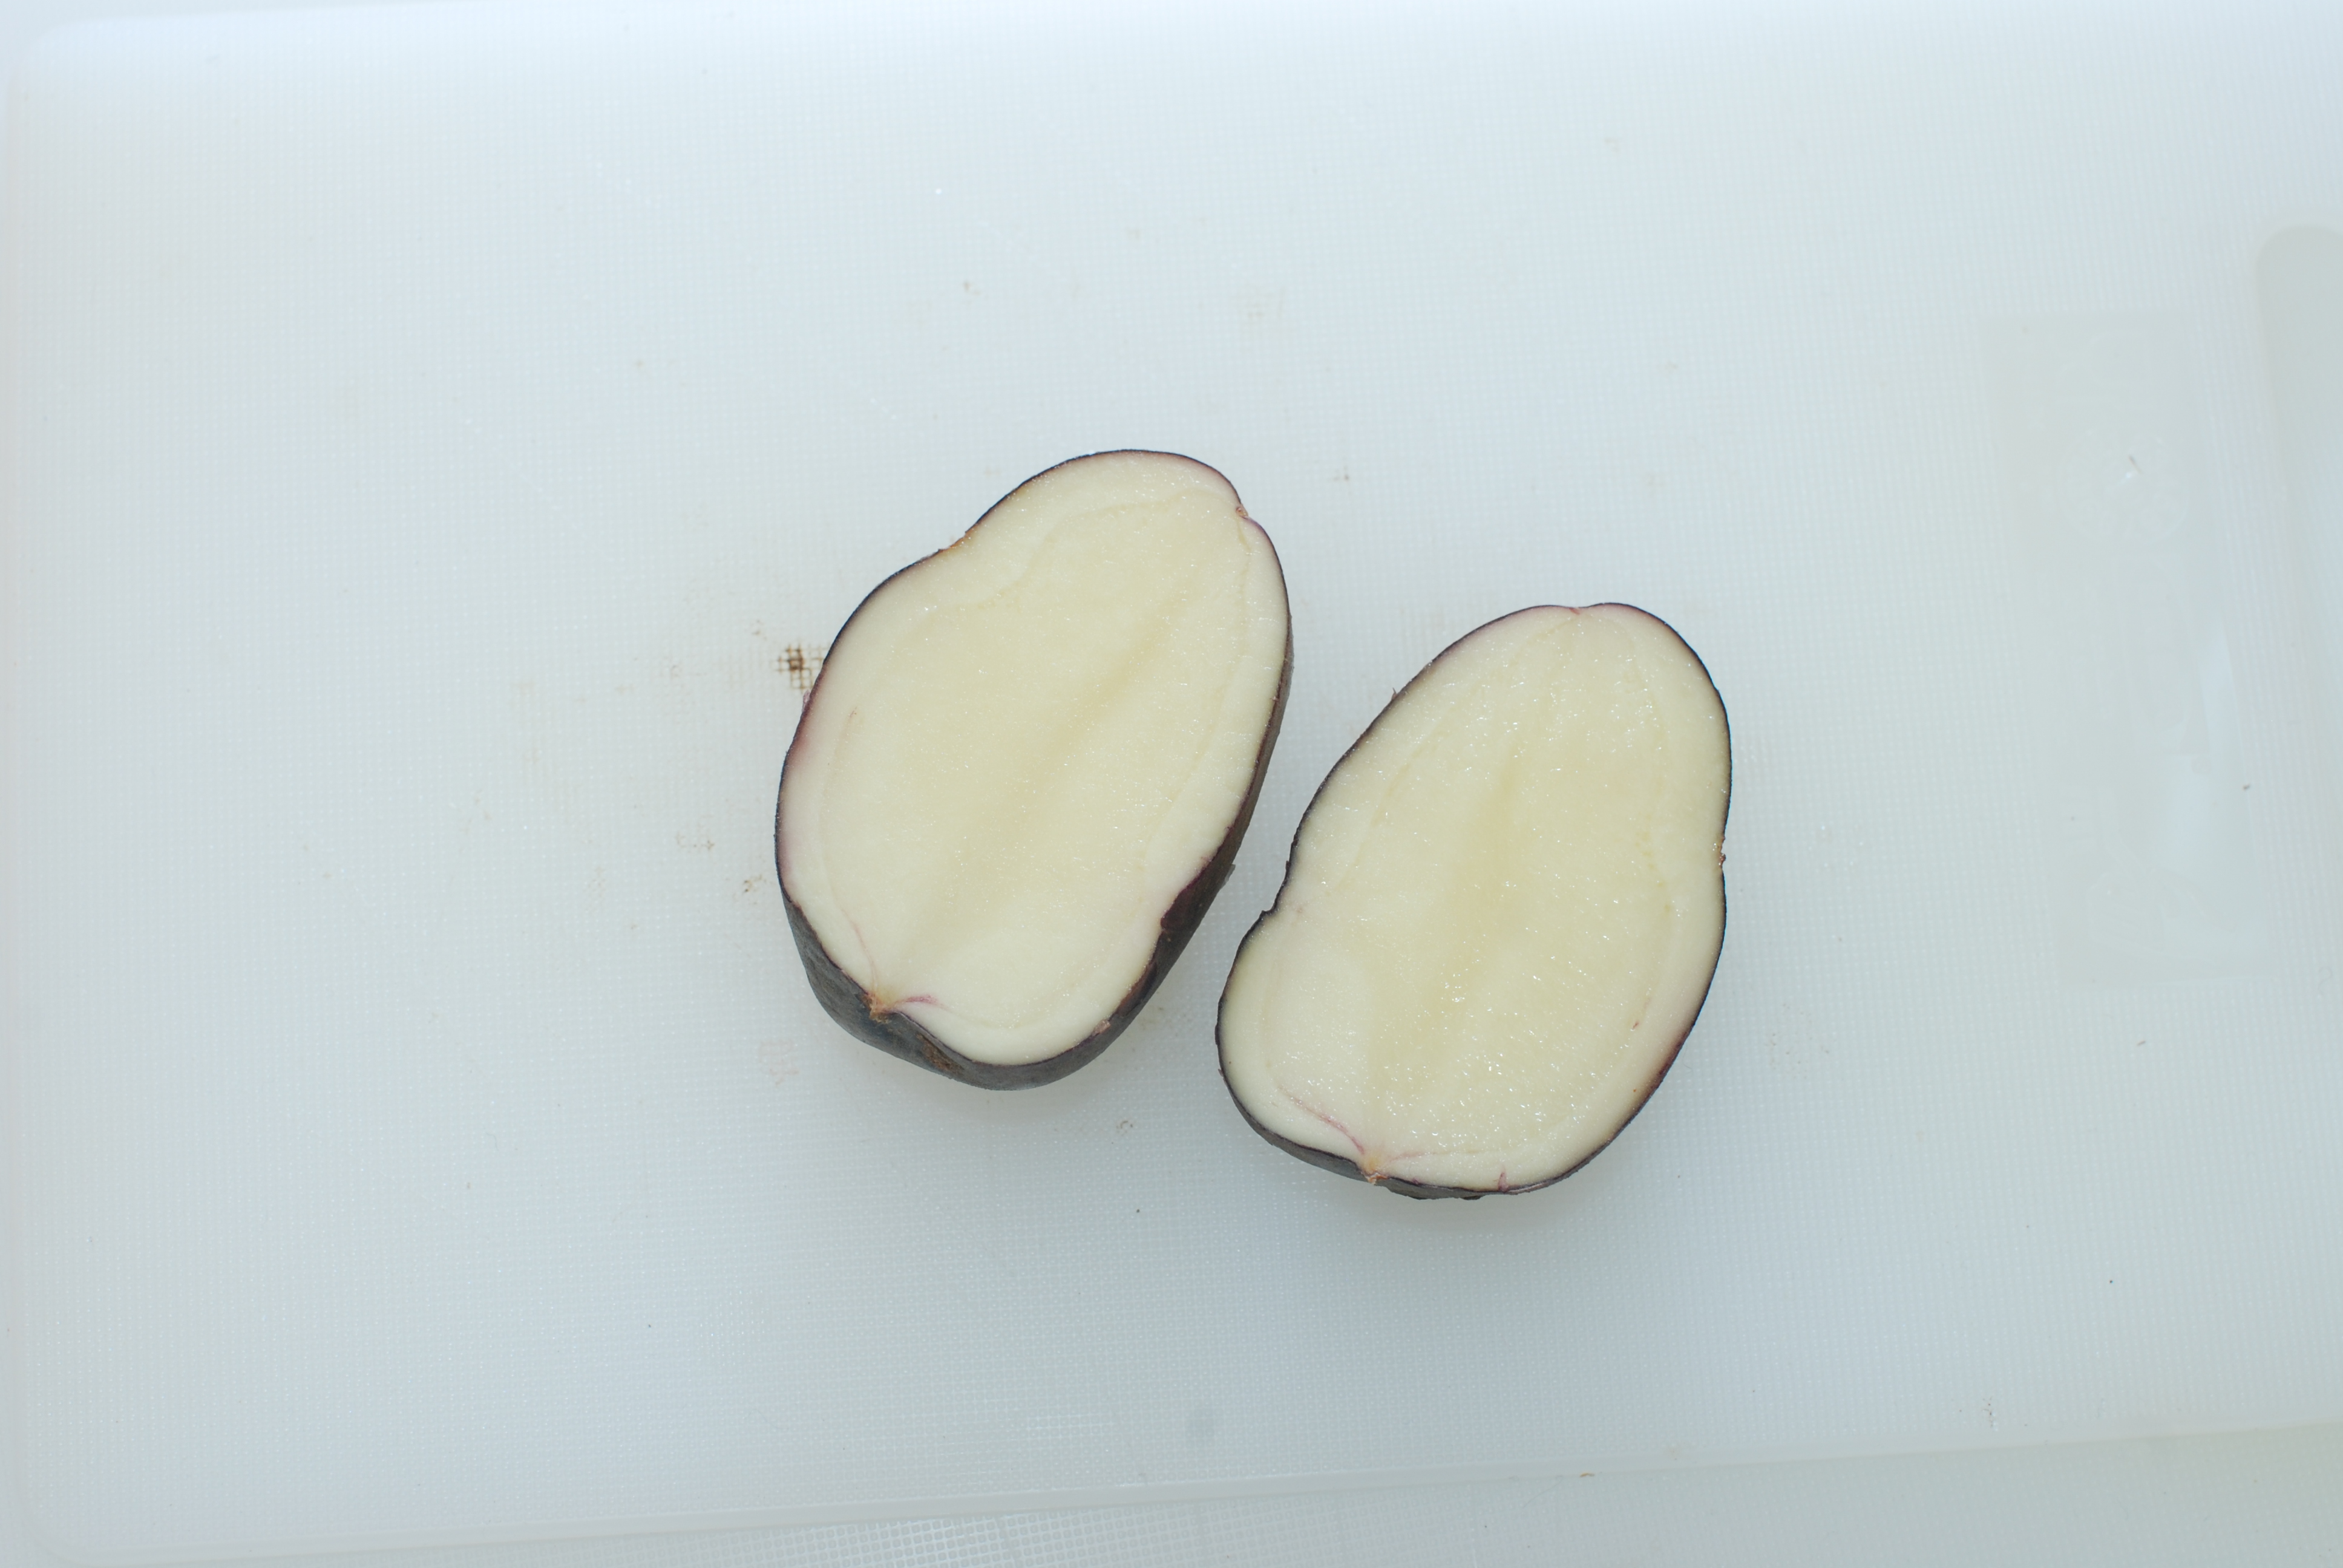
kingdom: Plantae
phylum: Tracheophyta
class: Magnoliopsida
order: Solanales
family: Solanaceae
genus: Solanum
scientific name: Solanum tuberosum
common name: Potato
